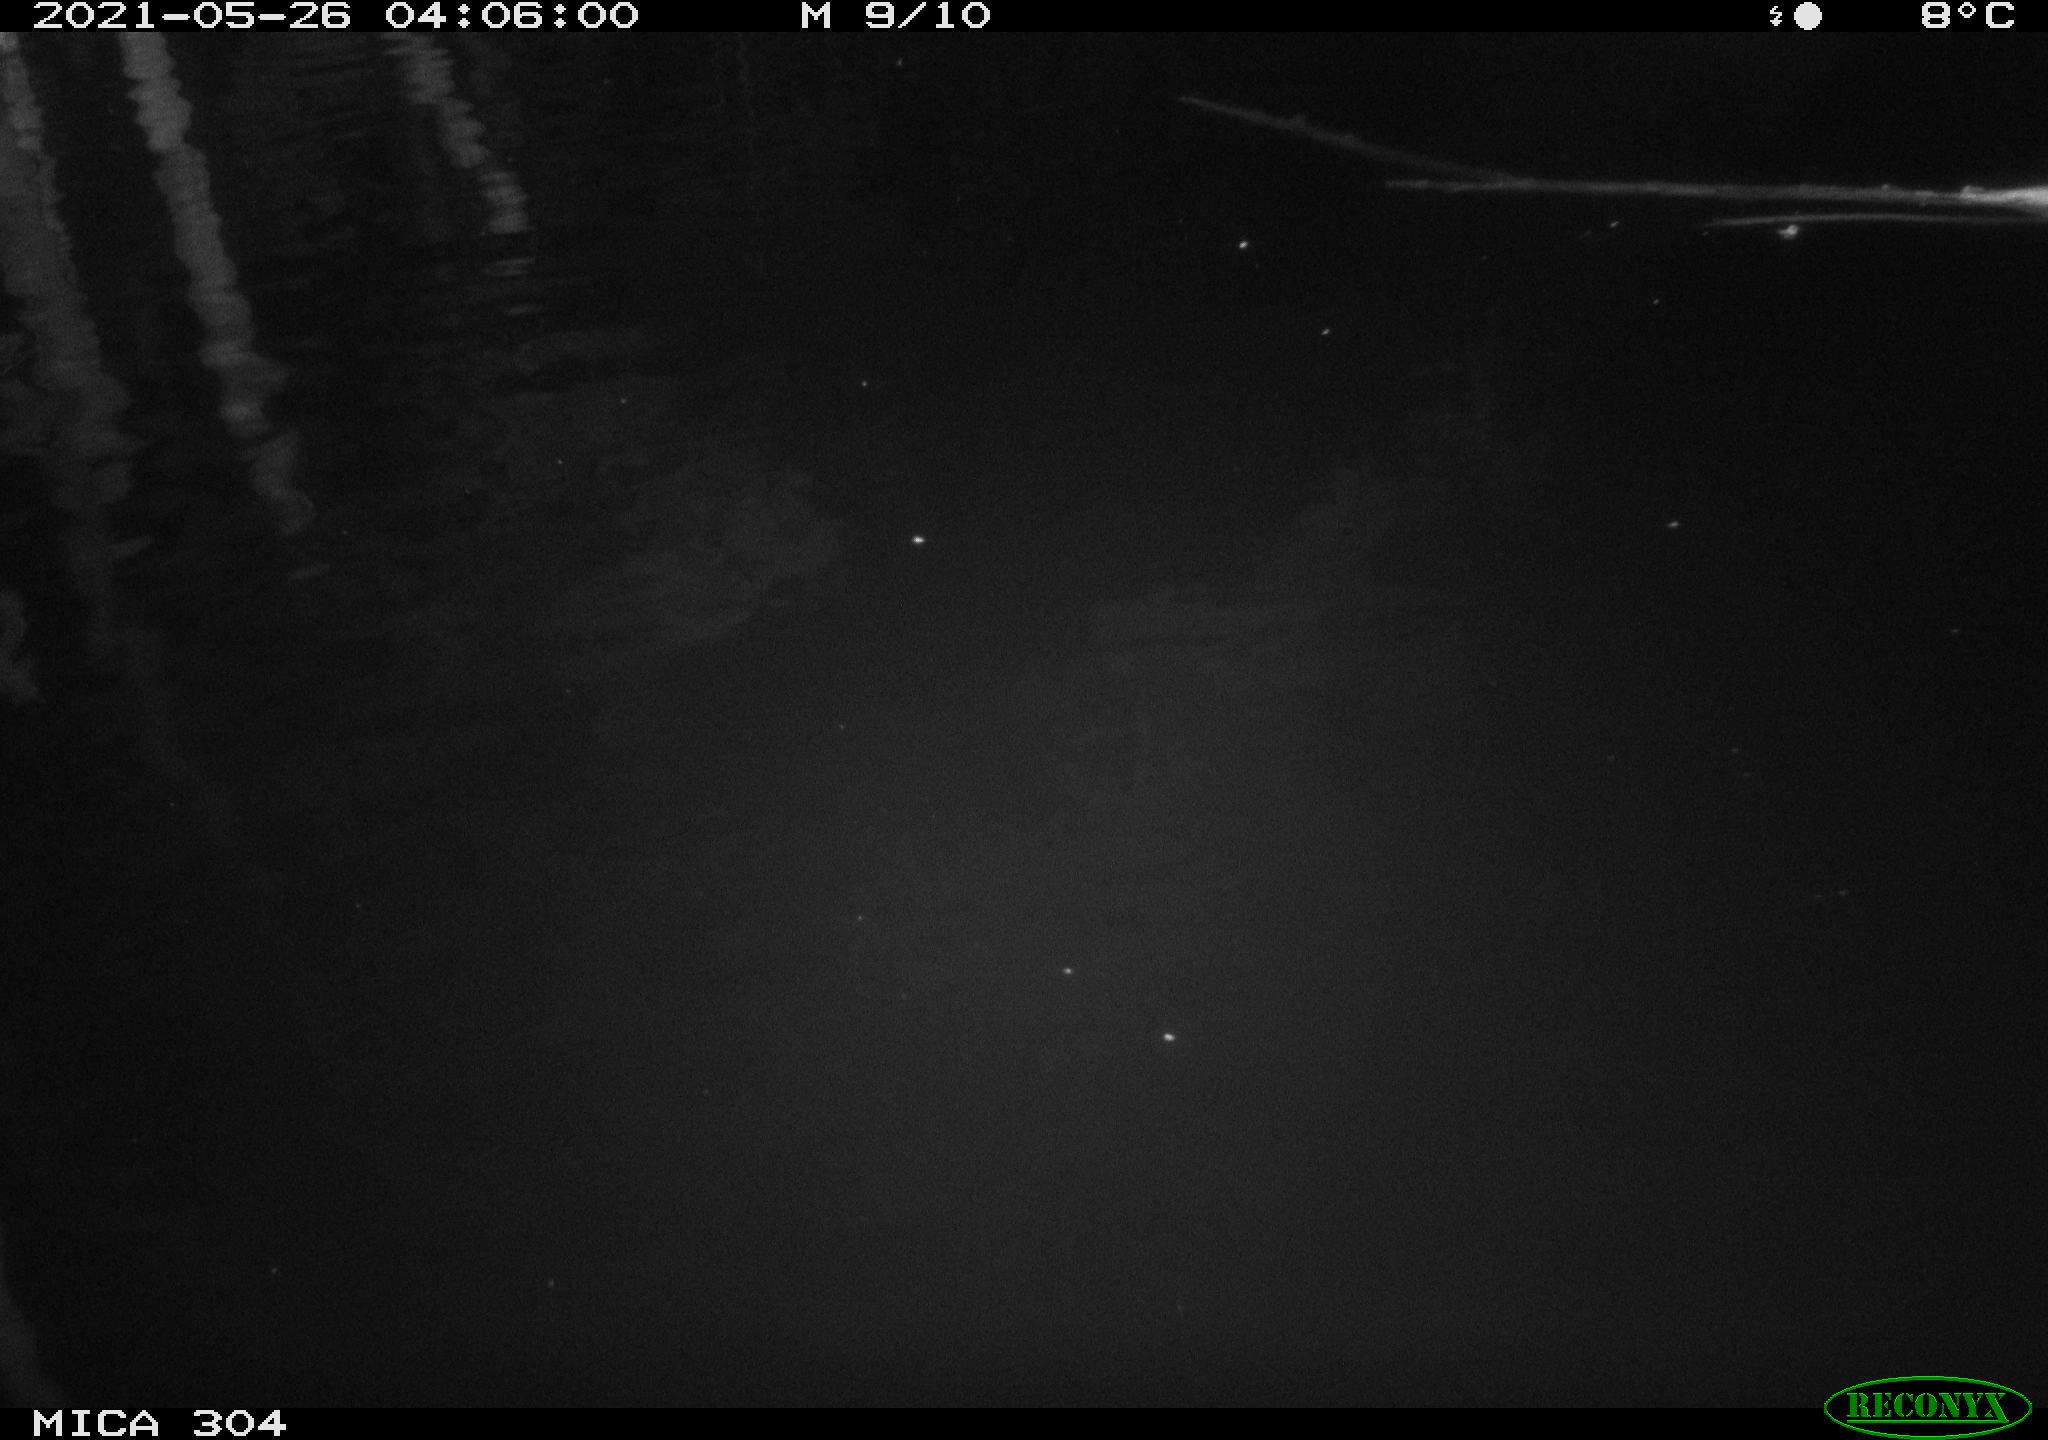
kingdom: Animalia
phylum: Chordata
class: Aves
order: Anseriformes
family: Anatidae
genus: Anas
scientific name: Anas platyrhynchos
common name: Mallard
